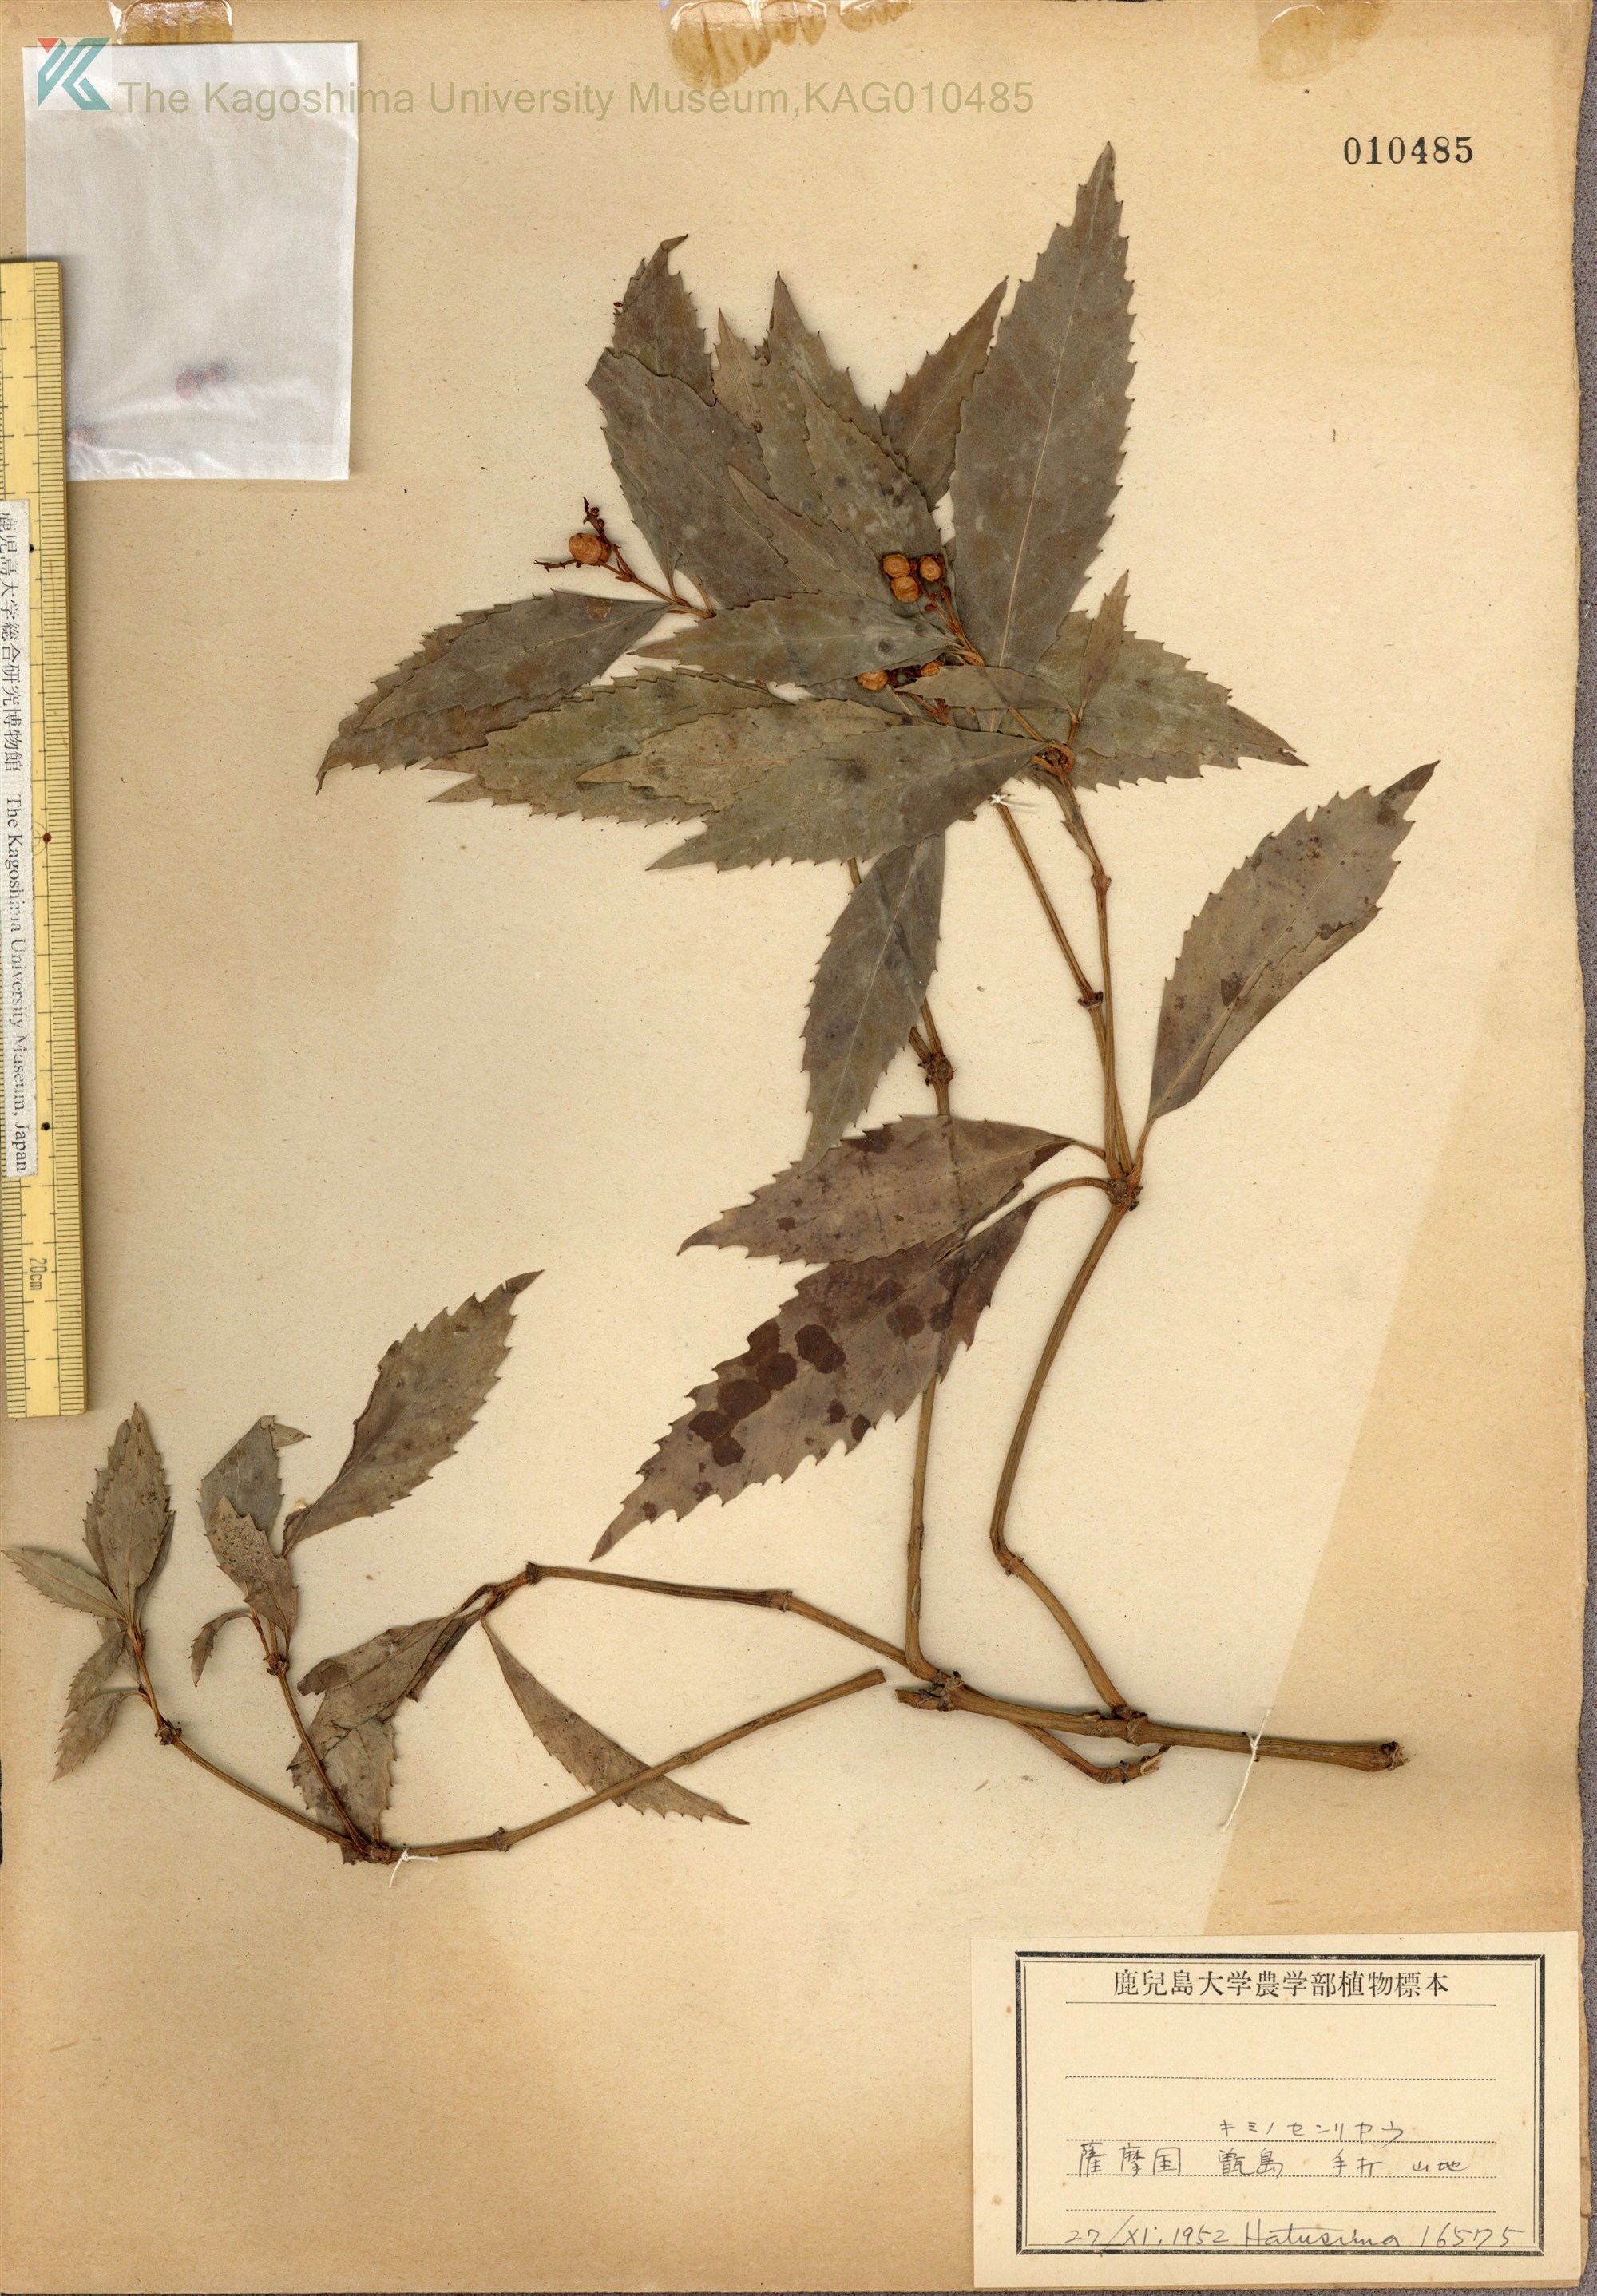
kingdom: Plantae
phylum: Tracheophyta
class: Magnoliopsida
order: Chloranthales
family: Chloranthaceae
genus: Sarcandra
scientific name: Sarcandra glabra
